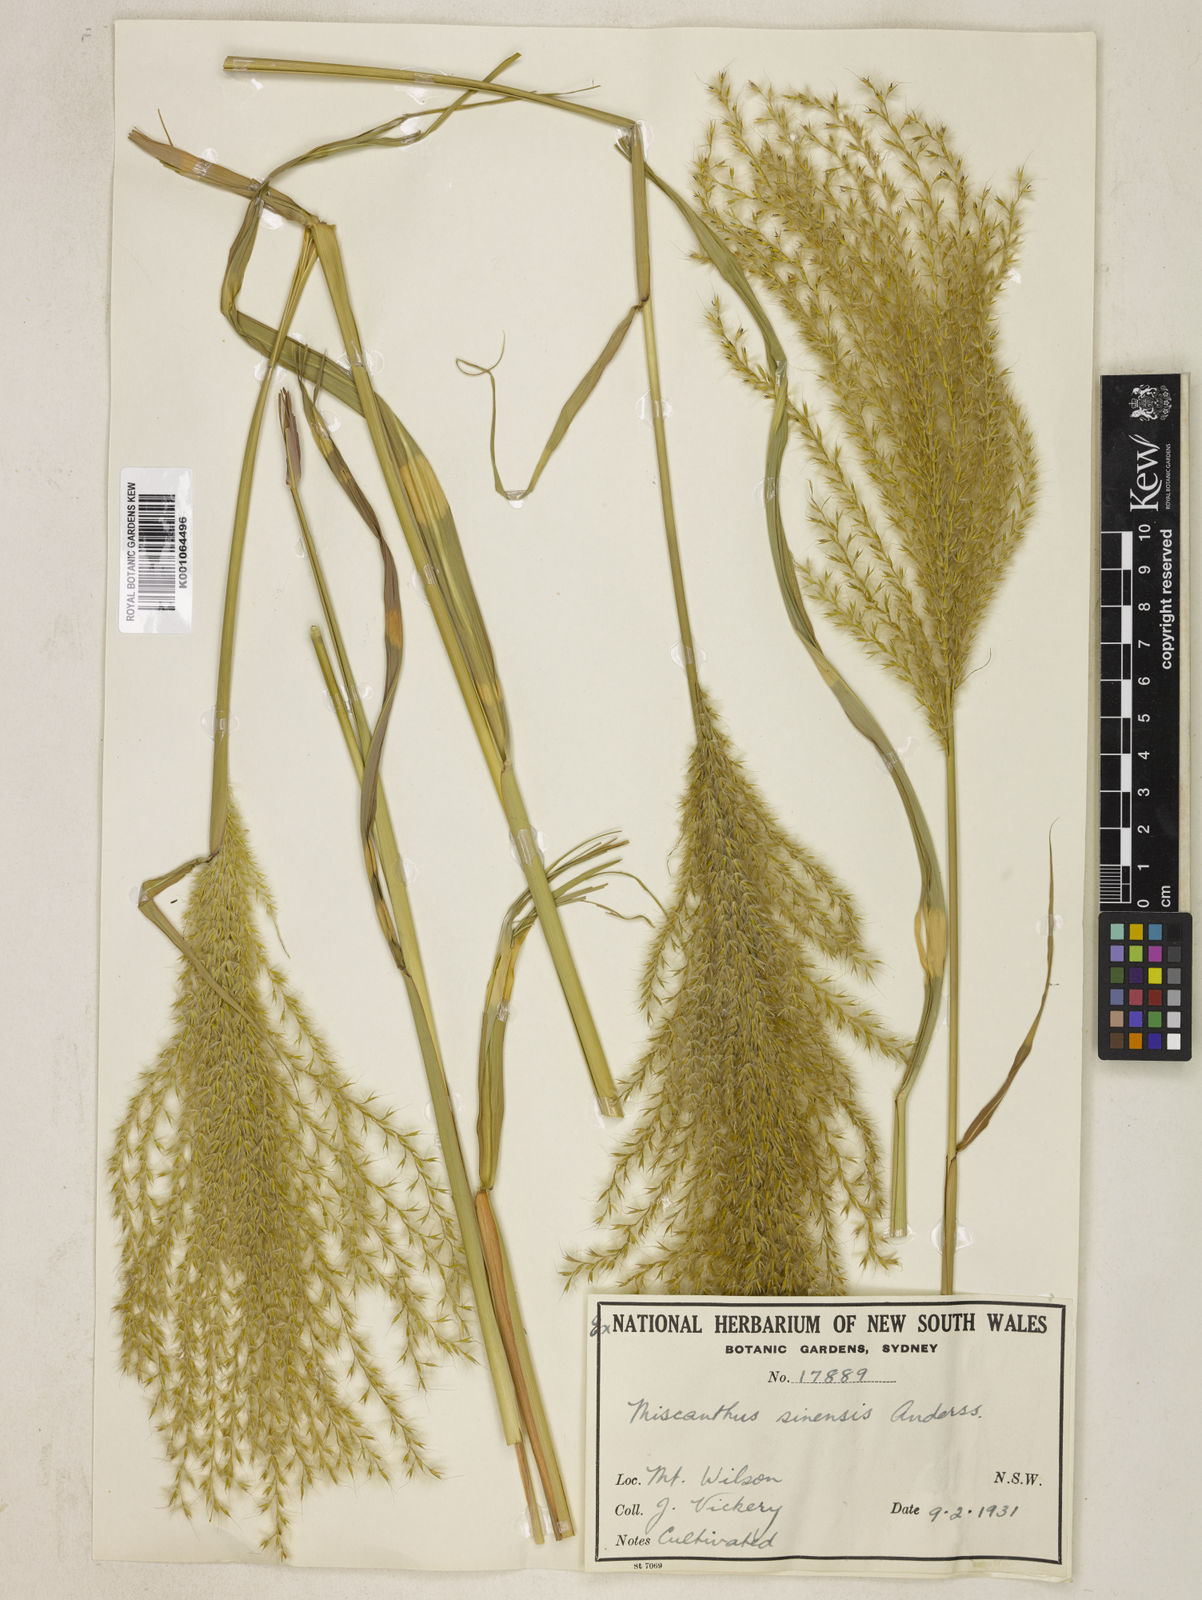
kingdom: Plantae
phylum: Tracheophyta
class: Liliopsida
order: Poales
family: Poaceae
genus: Miscanthus
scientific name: Miscanthus sinensis
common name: Chinese silvergrass
